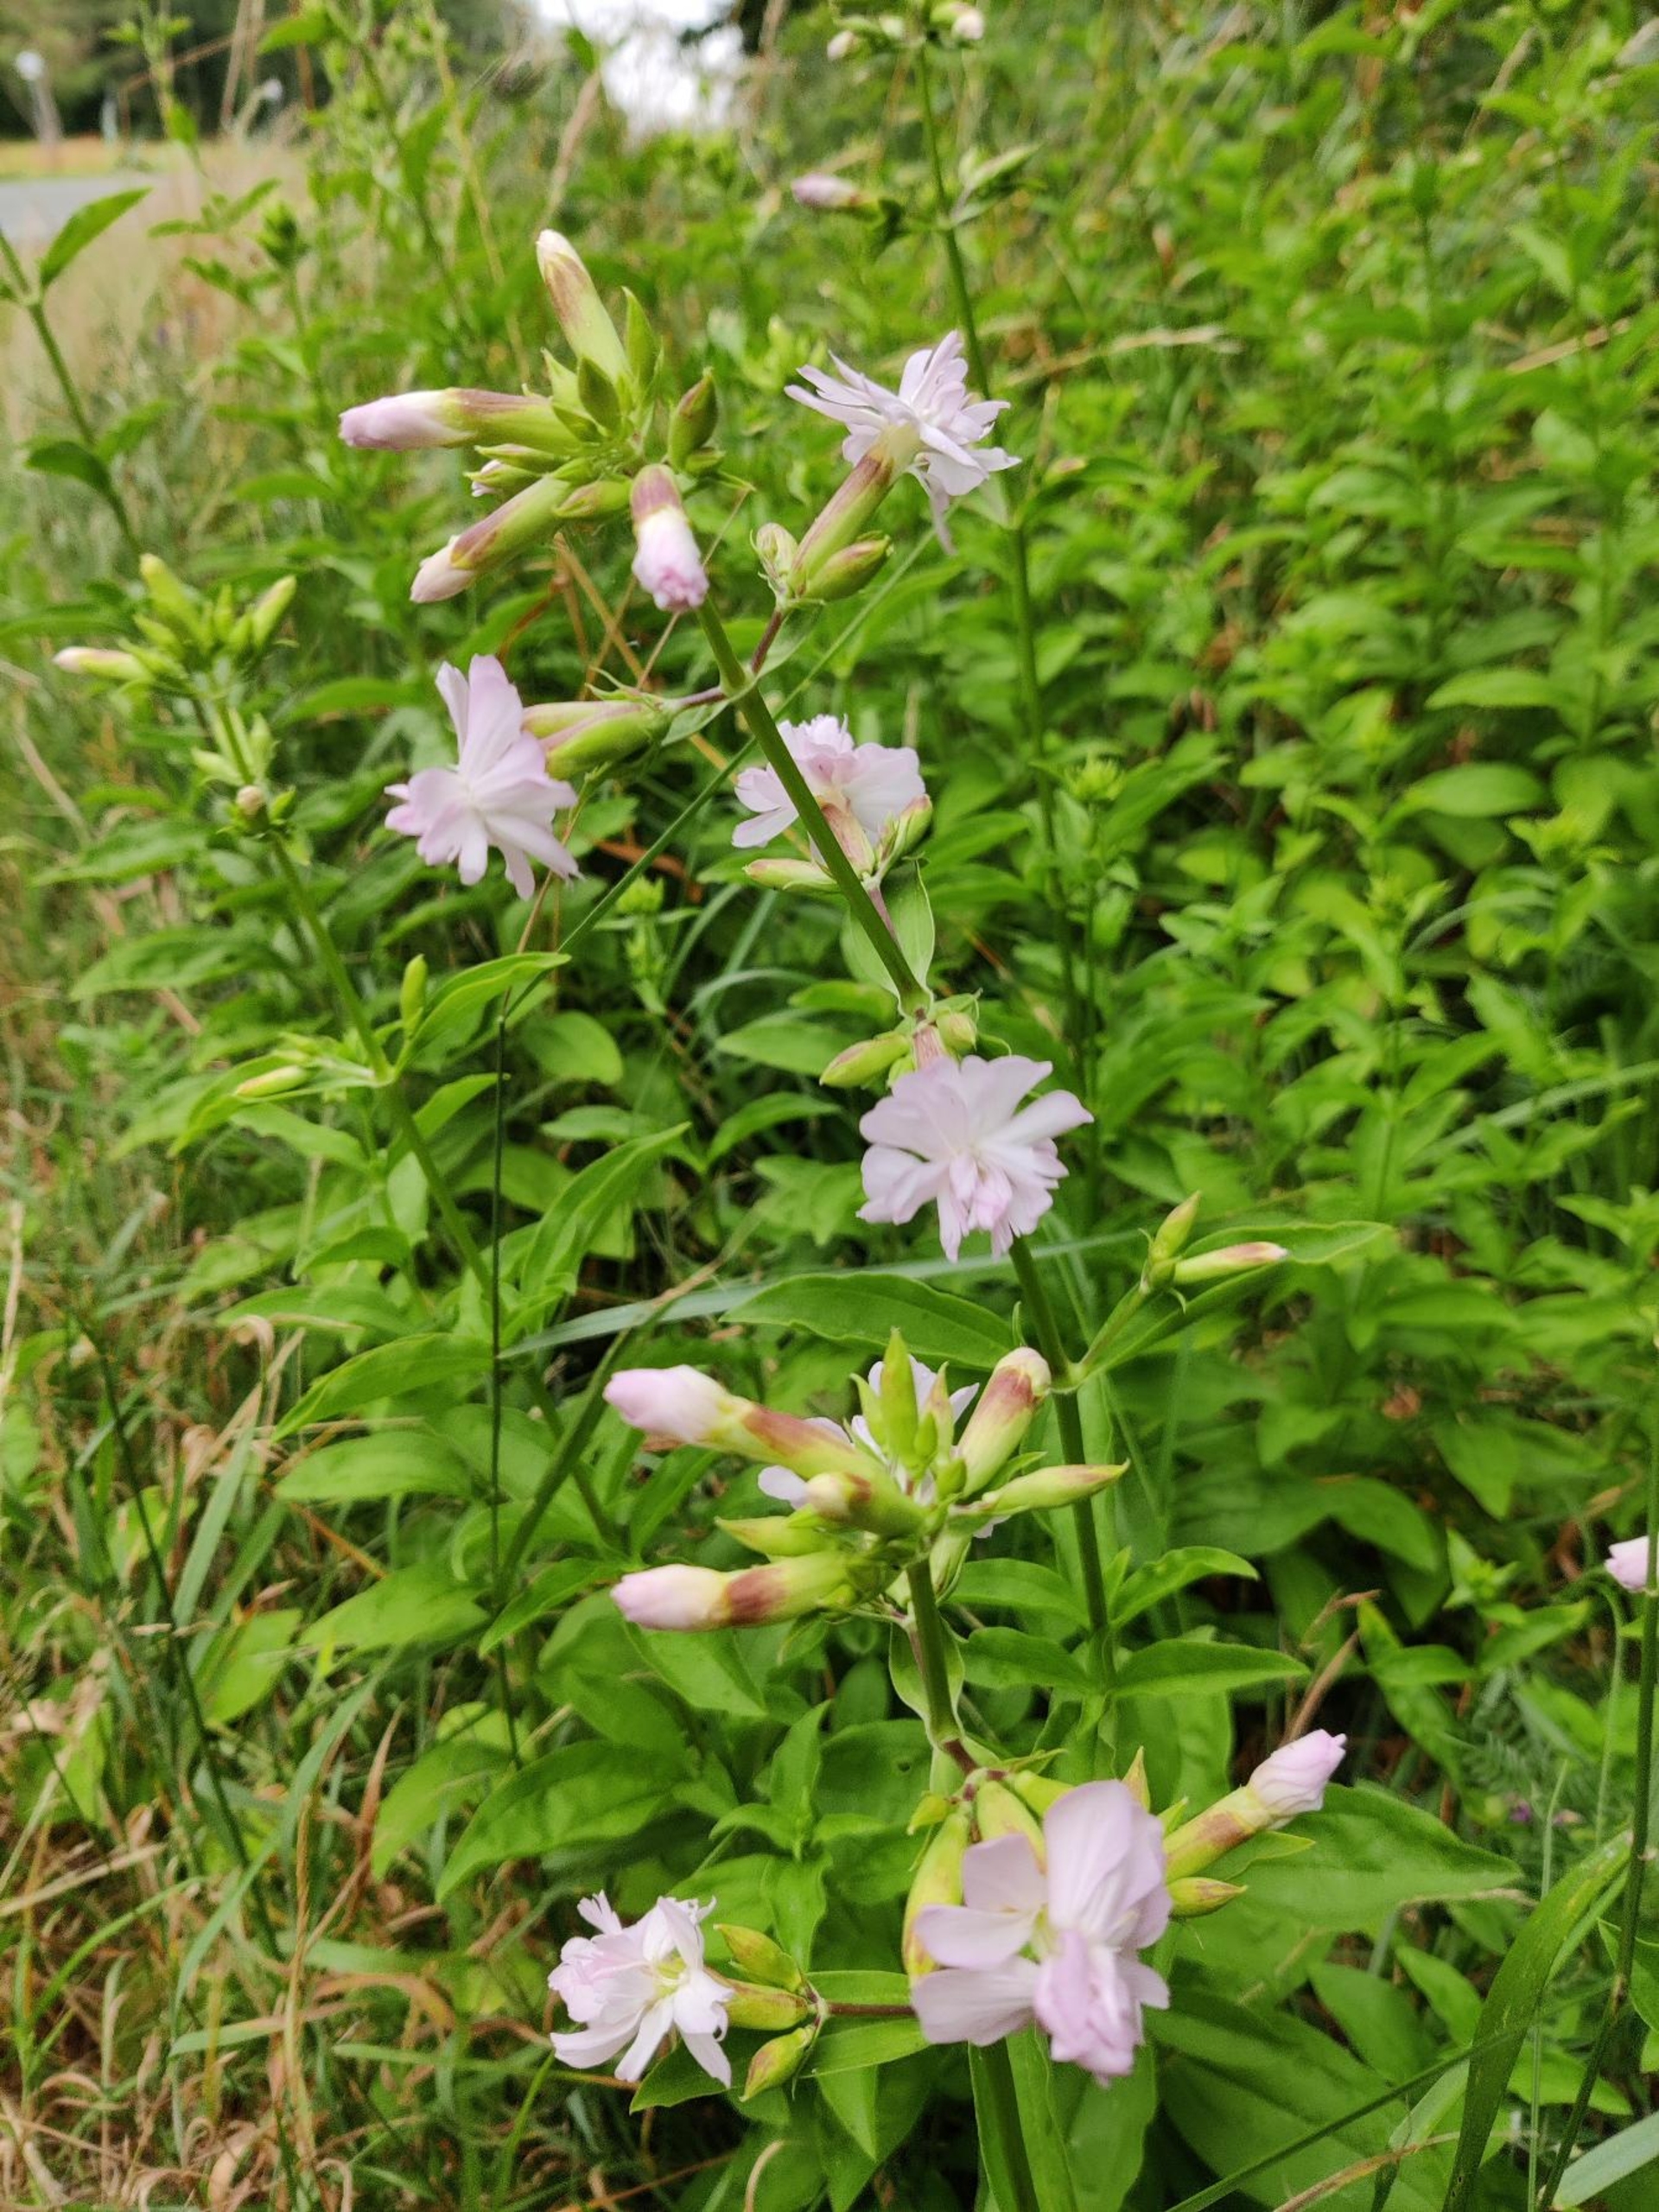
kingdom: Plantae
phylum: Tracheophyta
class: Magnoliopsida
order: Caryophyllales
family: Caryophyllaceae
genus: Saponaria
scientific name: Saponaria officinalis
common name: Sæbeurt
